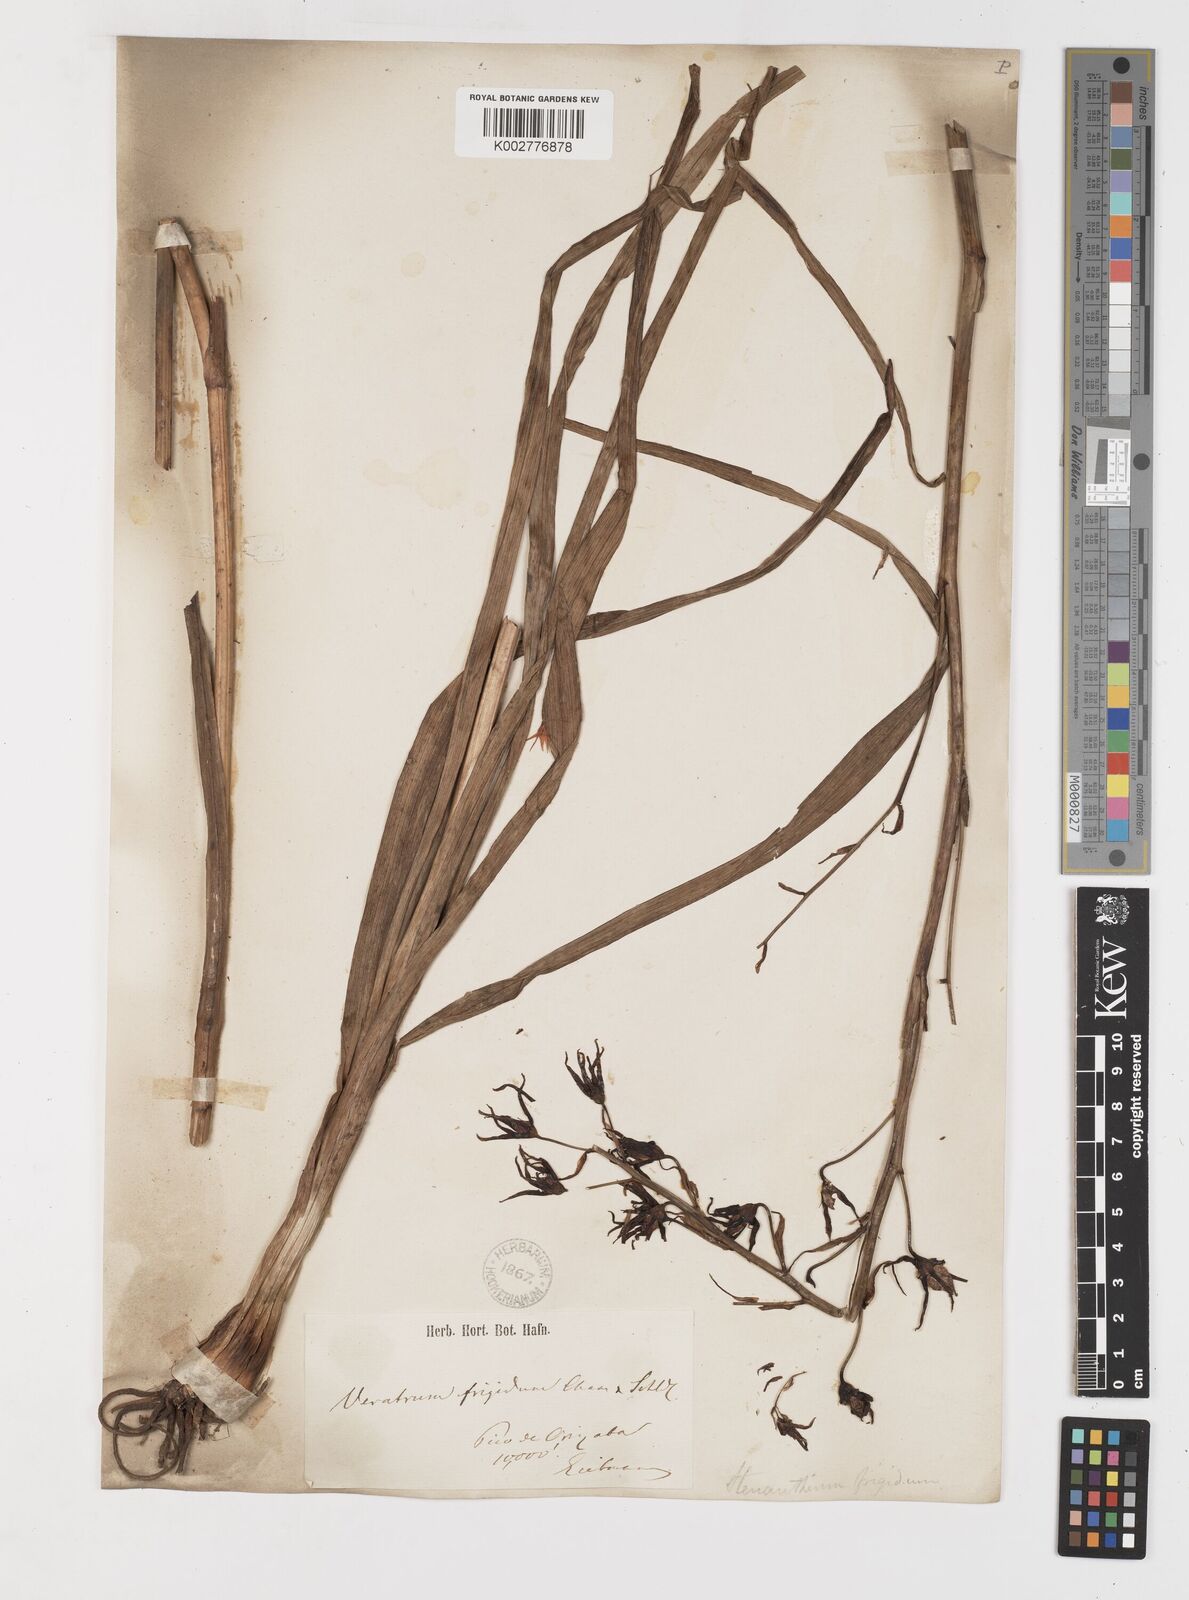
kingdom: Plantae
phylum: Tracheophyta
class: Liliopsida
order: Liliales
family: Melanthiaceae
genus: Anticlea
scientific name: Anticlea frigida
